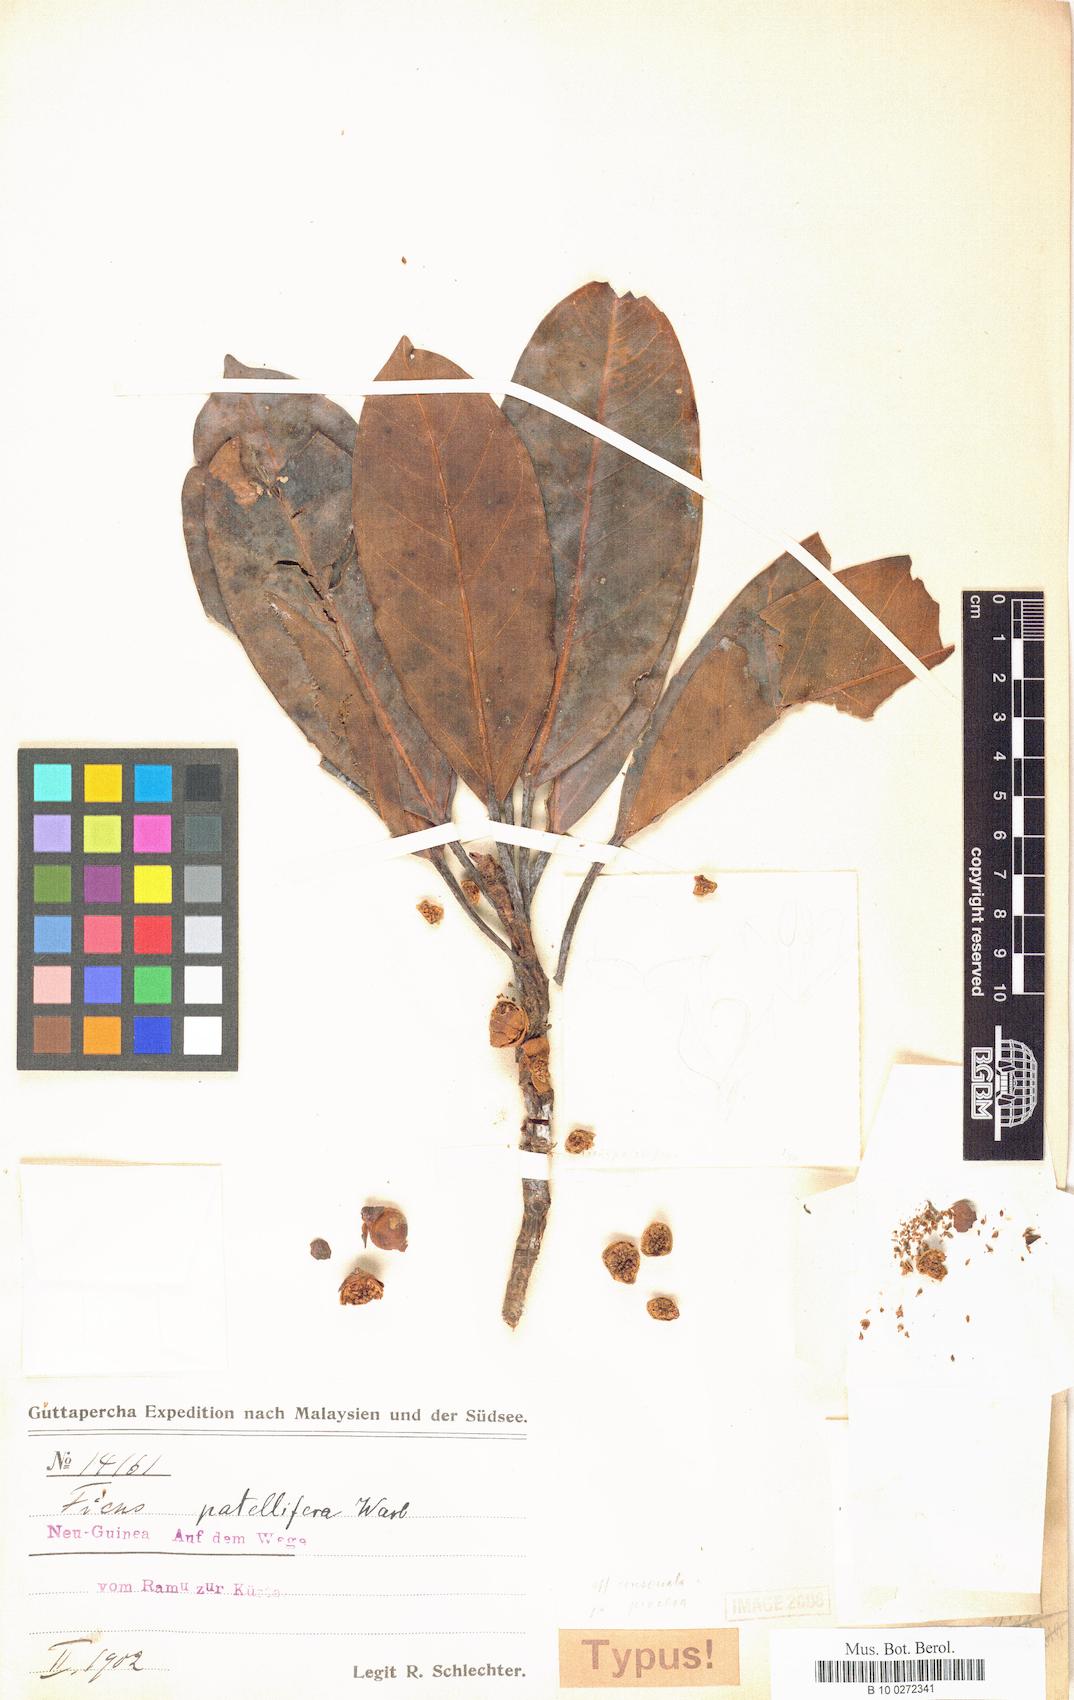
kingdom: Plantae
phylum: Tracheophyta
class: Magnoliopsida
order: Rosales
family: Moraceae
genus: Ficus
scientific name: Ficus forstenii
